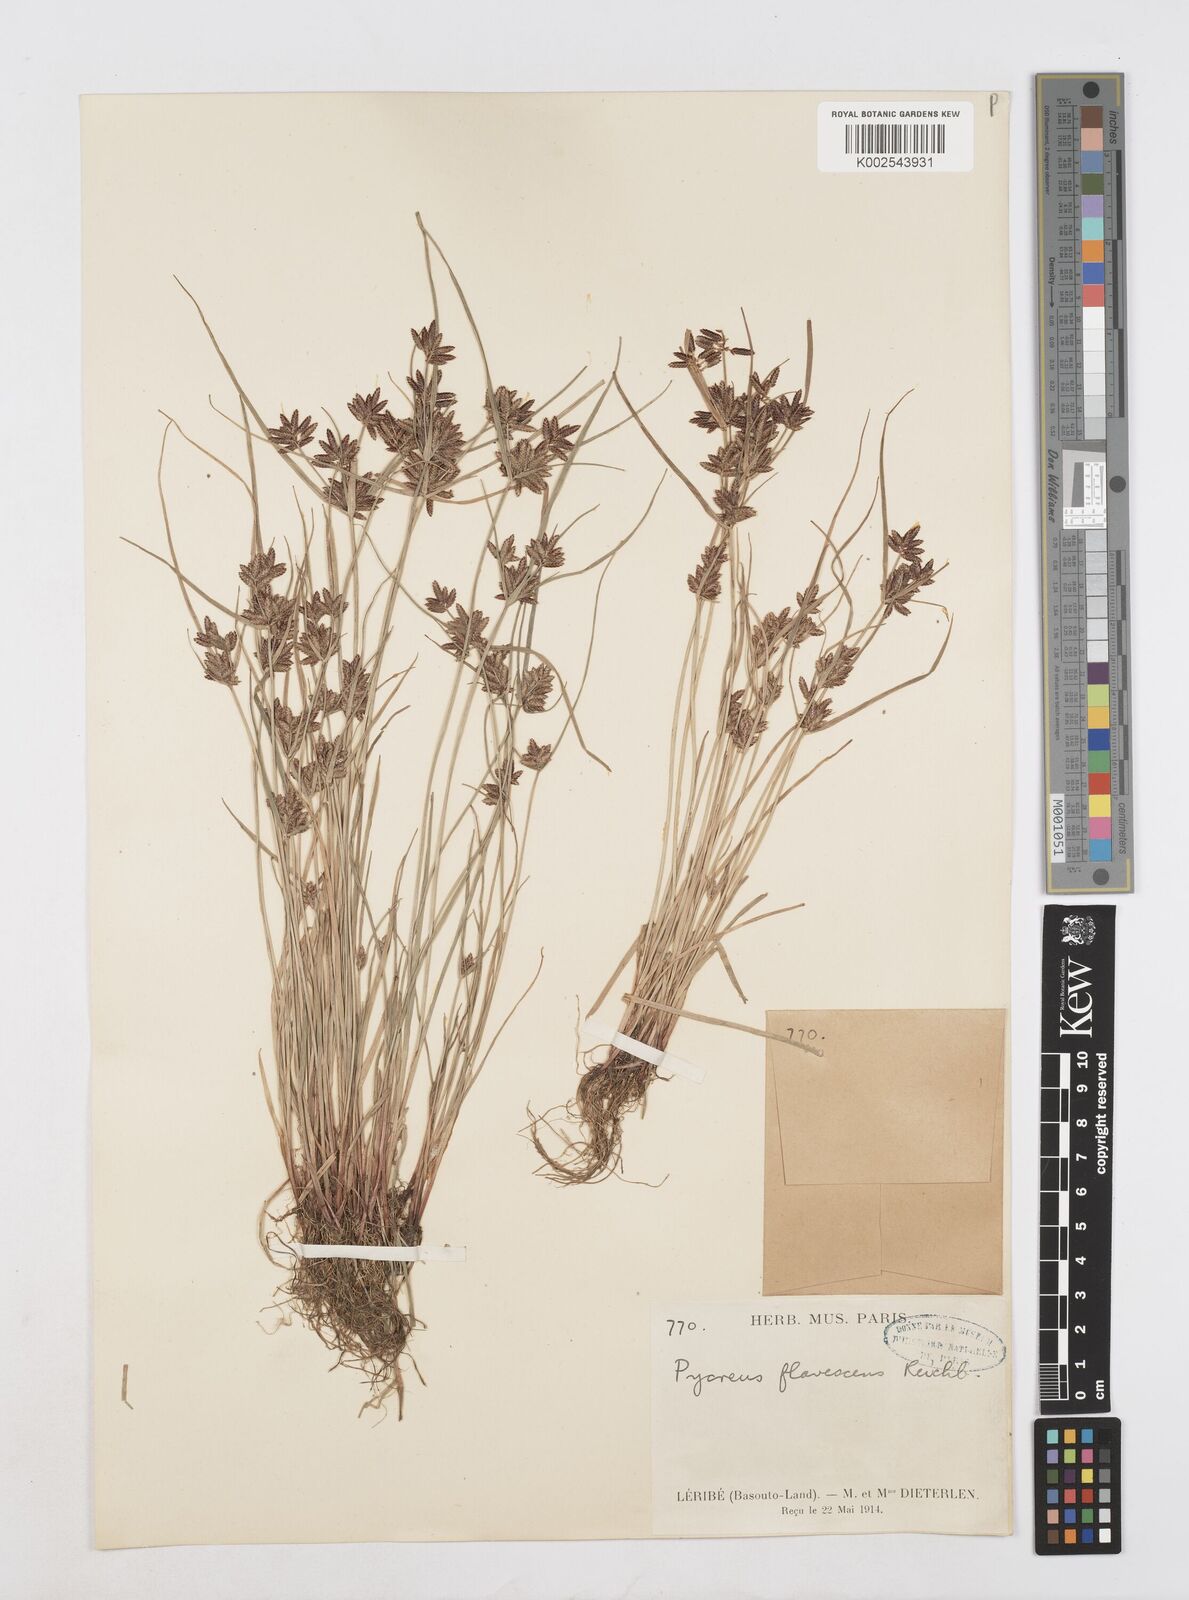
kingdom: Plantae
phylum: Tracheophyta
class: Liliopsida
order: Poales
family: Cyperaceae
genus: Cyperus
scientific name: Cyperus flavescens
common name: Yellow galingale
